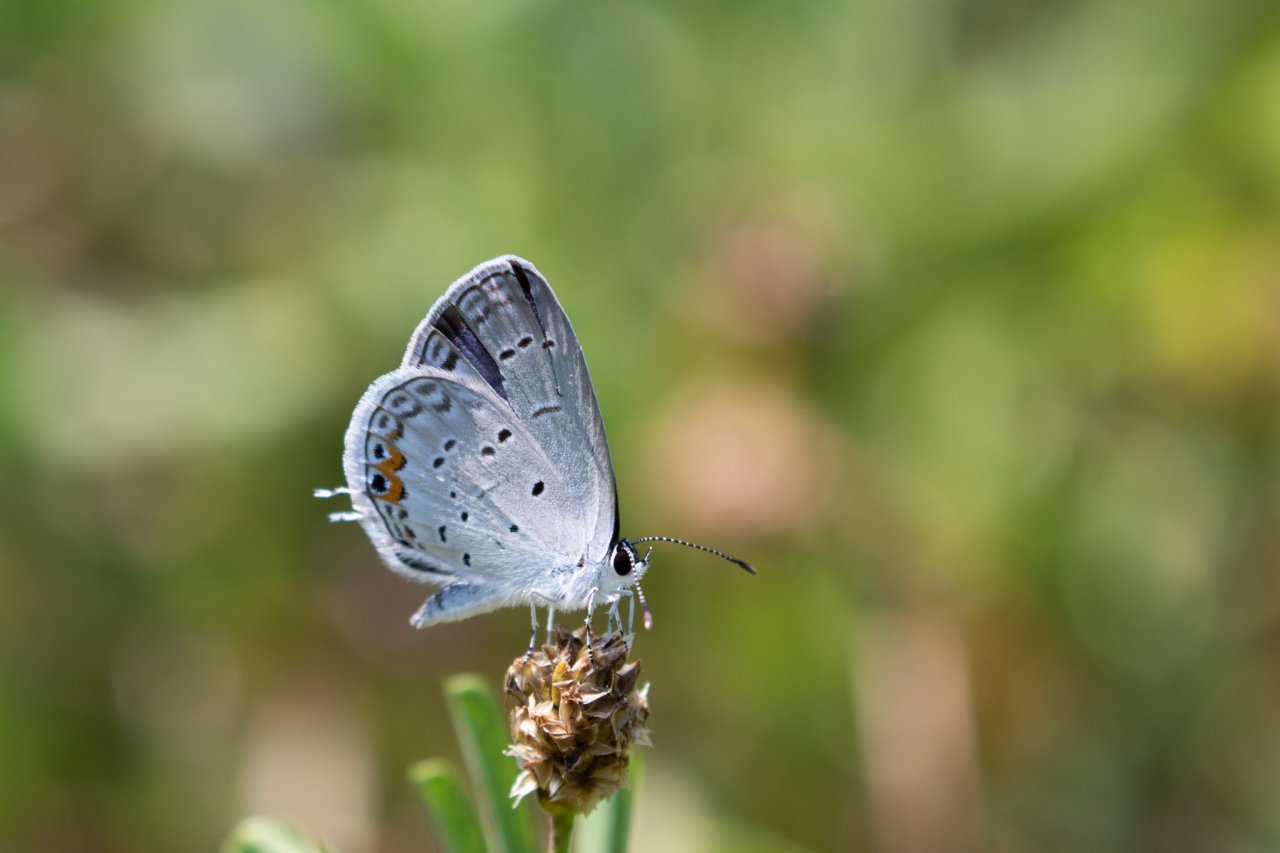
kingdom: Animalia
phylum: Arthropoda
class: Insecta
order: Lepidoptera
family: Lycaenidae
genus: Elkalyce
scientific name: Elkalyce comyntas
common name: Eastern Tailed-Blue
